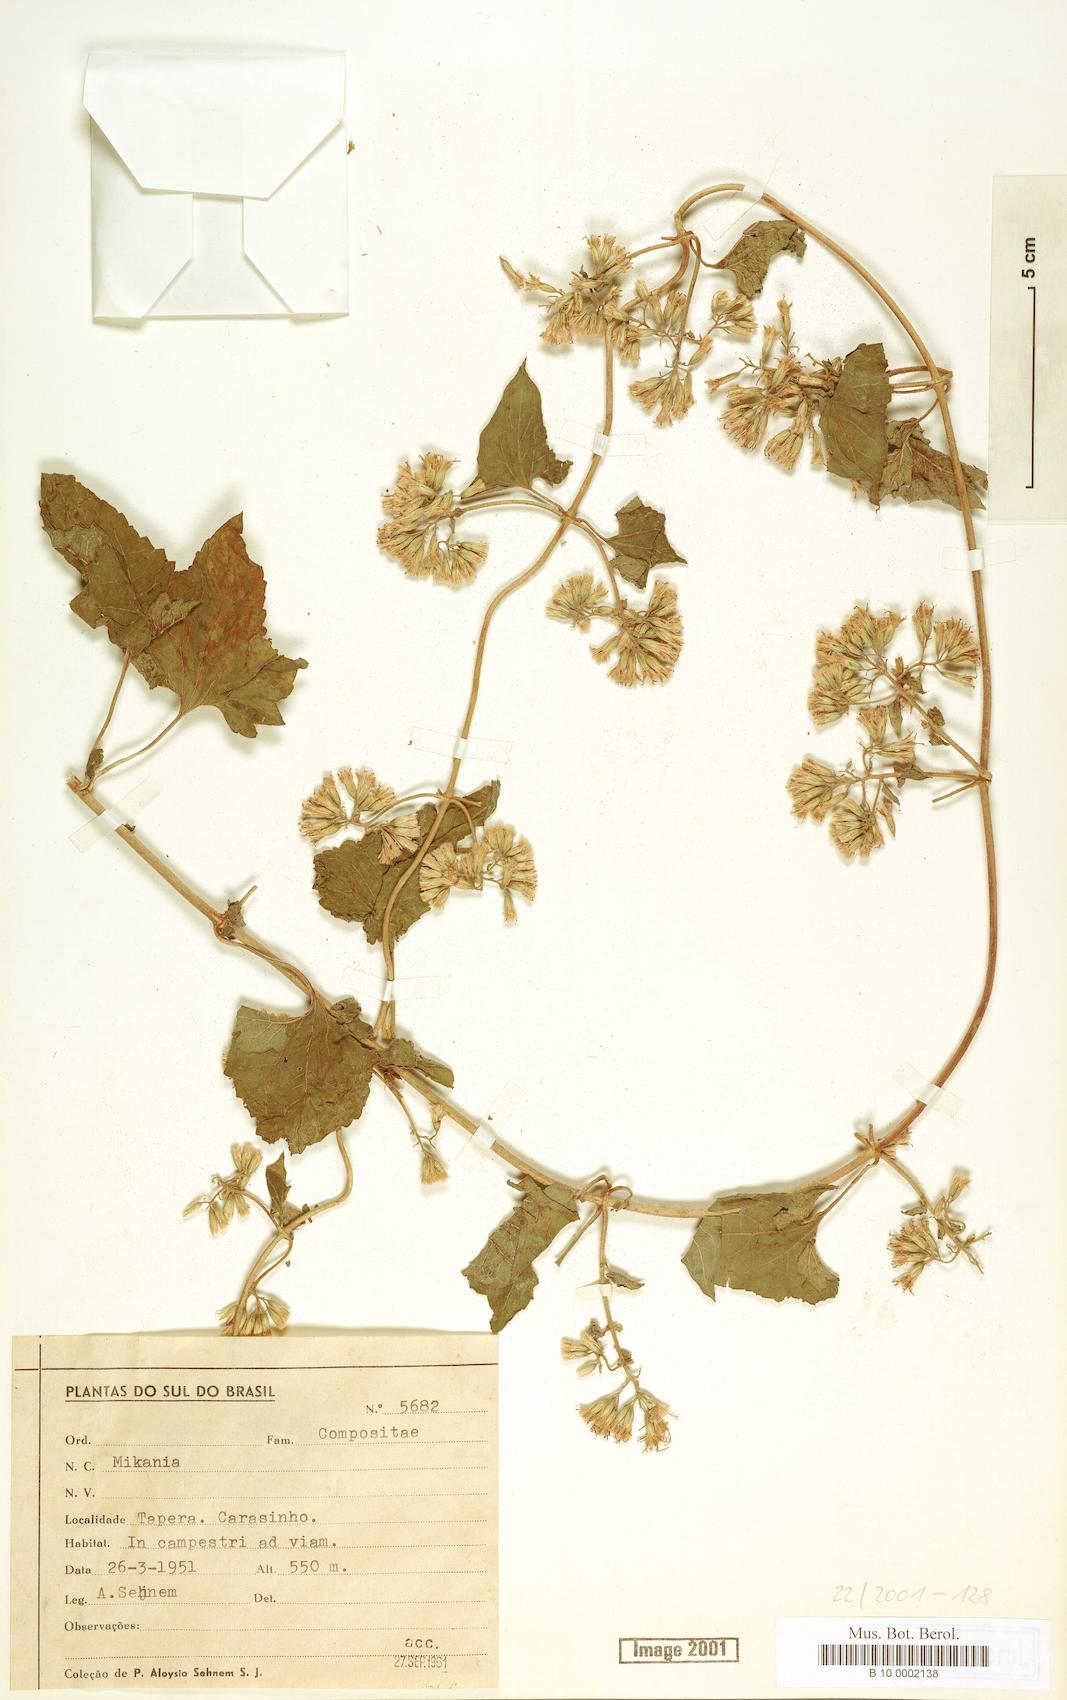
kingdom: Plantae
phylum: Tracheophyta
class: Magnoliopsida
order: Asterales
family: Asteraceae
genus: Mikania
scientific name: Mikania
